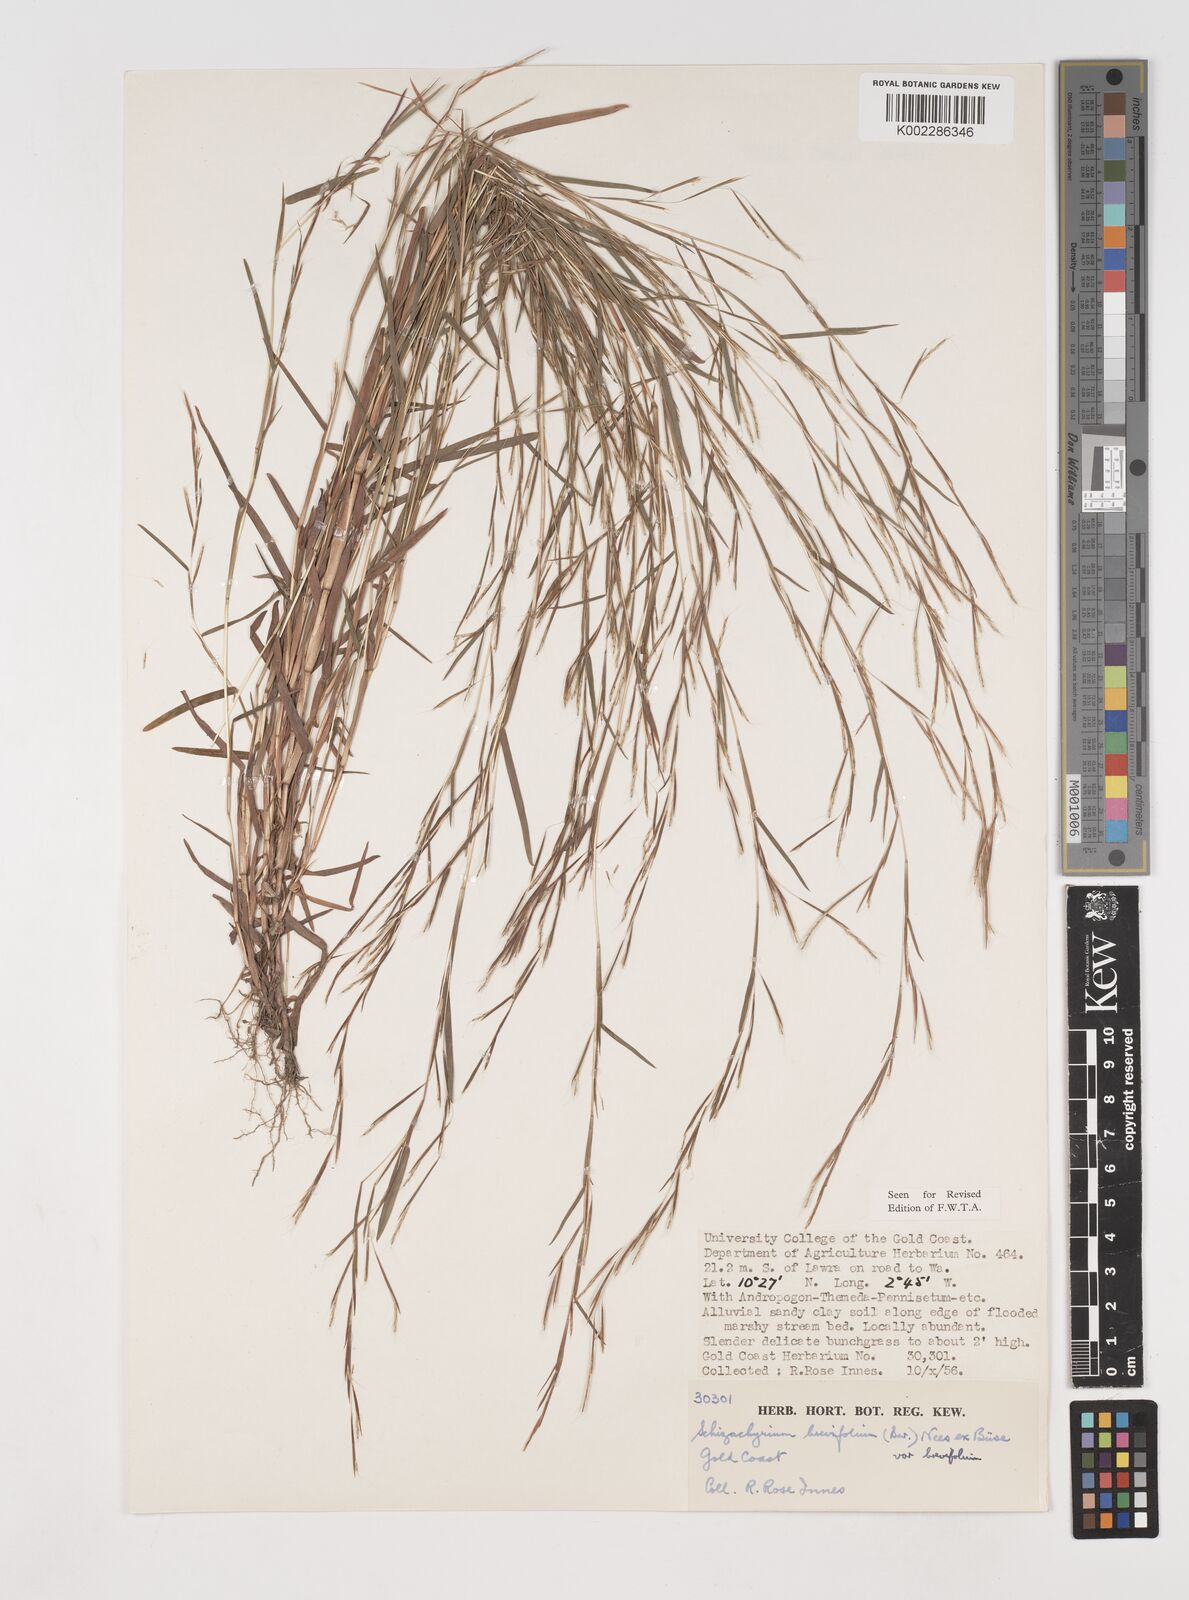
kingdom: Plantae
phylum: Tracheophyta
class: Liliopsida
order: Poales
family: Poaceae
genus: Schizachyrium
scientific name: Schizachyrium brevifolium
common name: Serillo dulce
